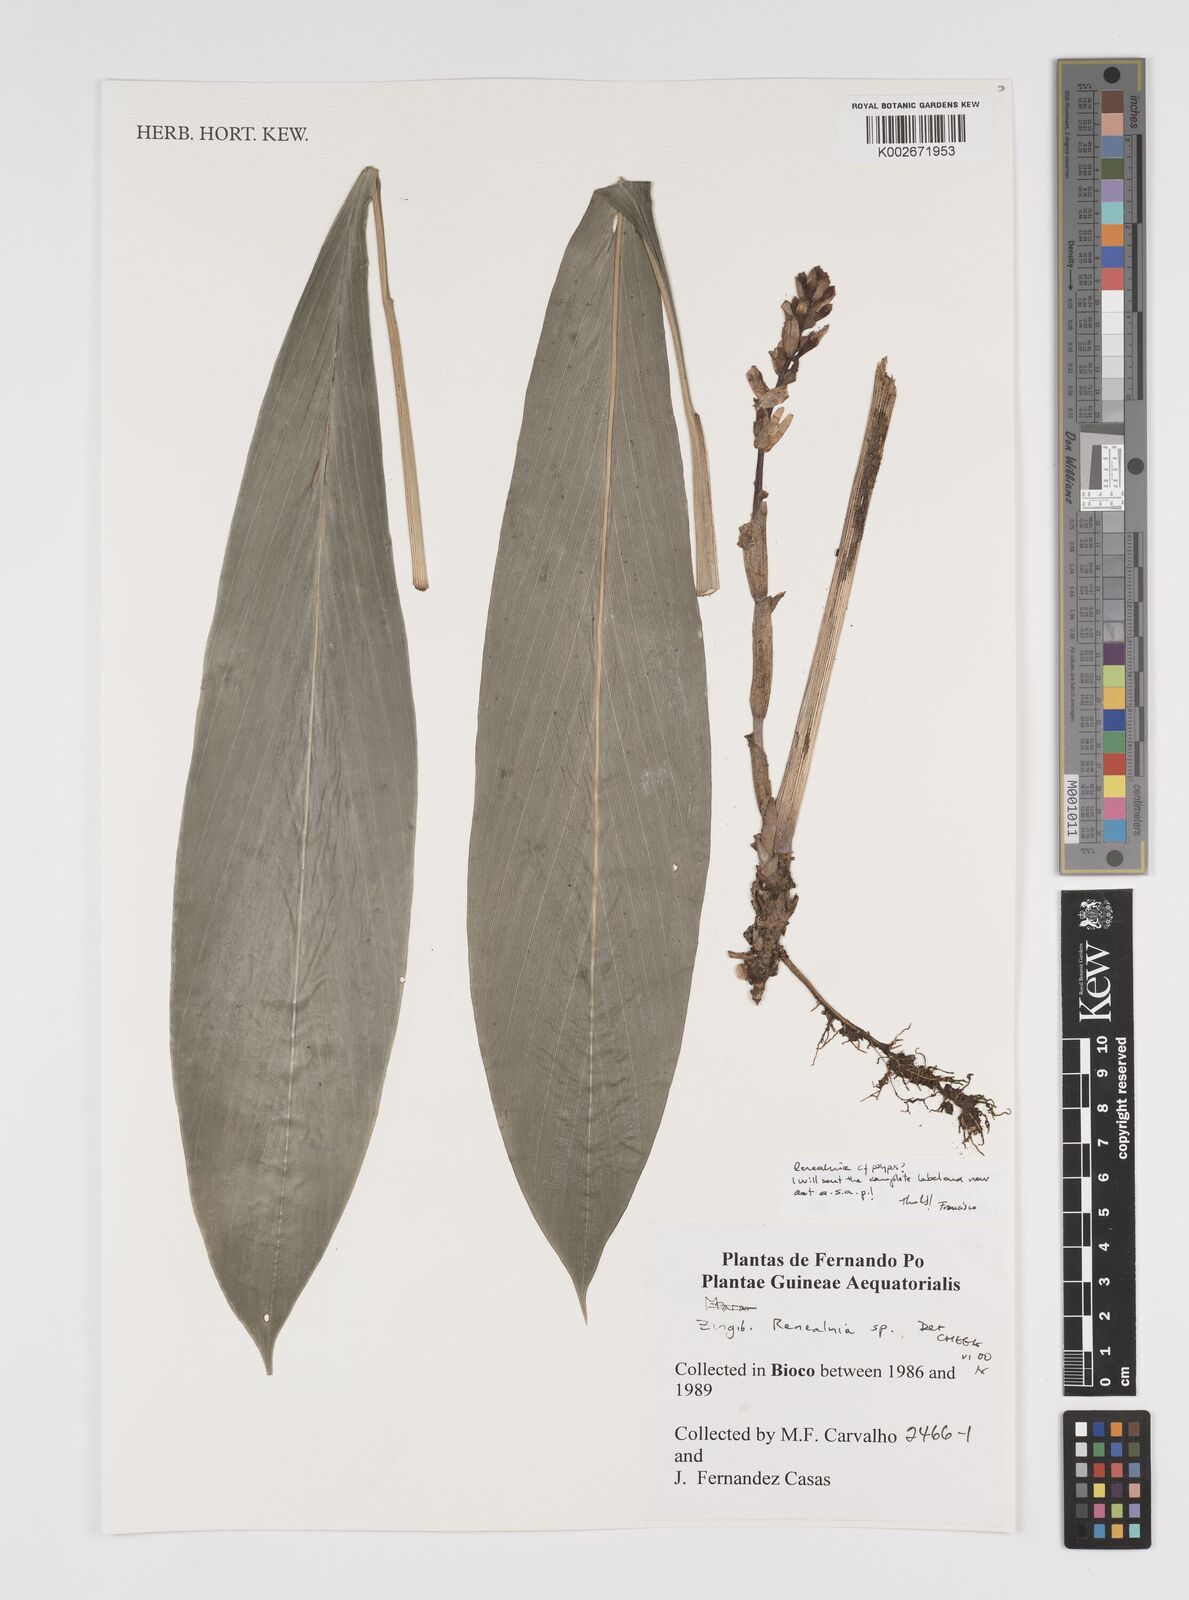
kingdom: Plantae
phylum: Tracheophyta
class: Liliopsida
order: Zingiberales
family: Zingiberaceae
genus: Renealmia
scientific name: Renealmia
